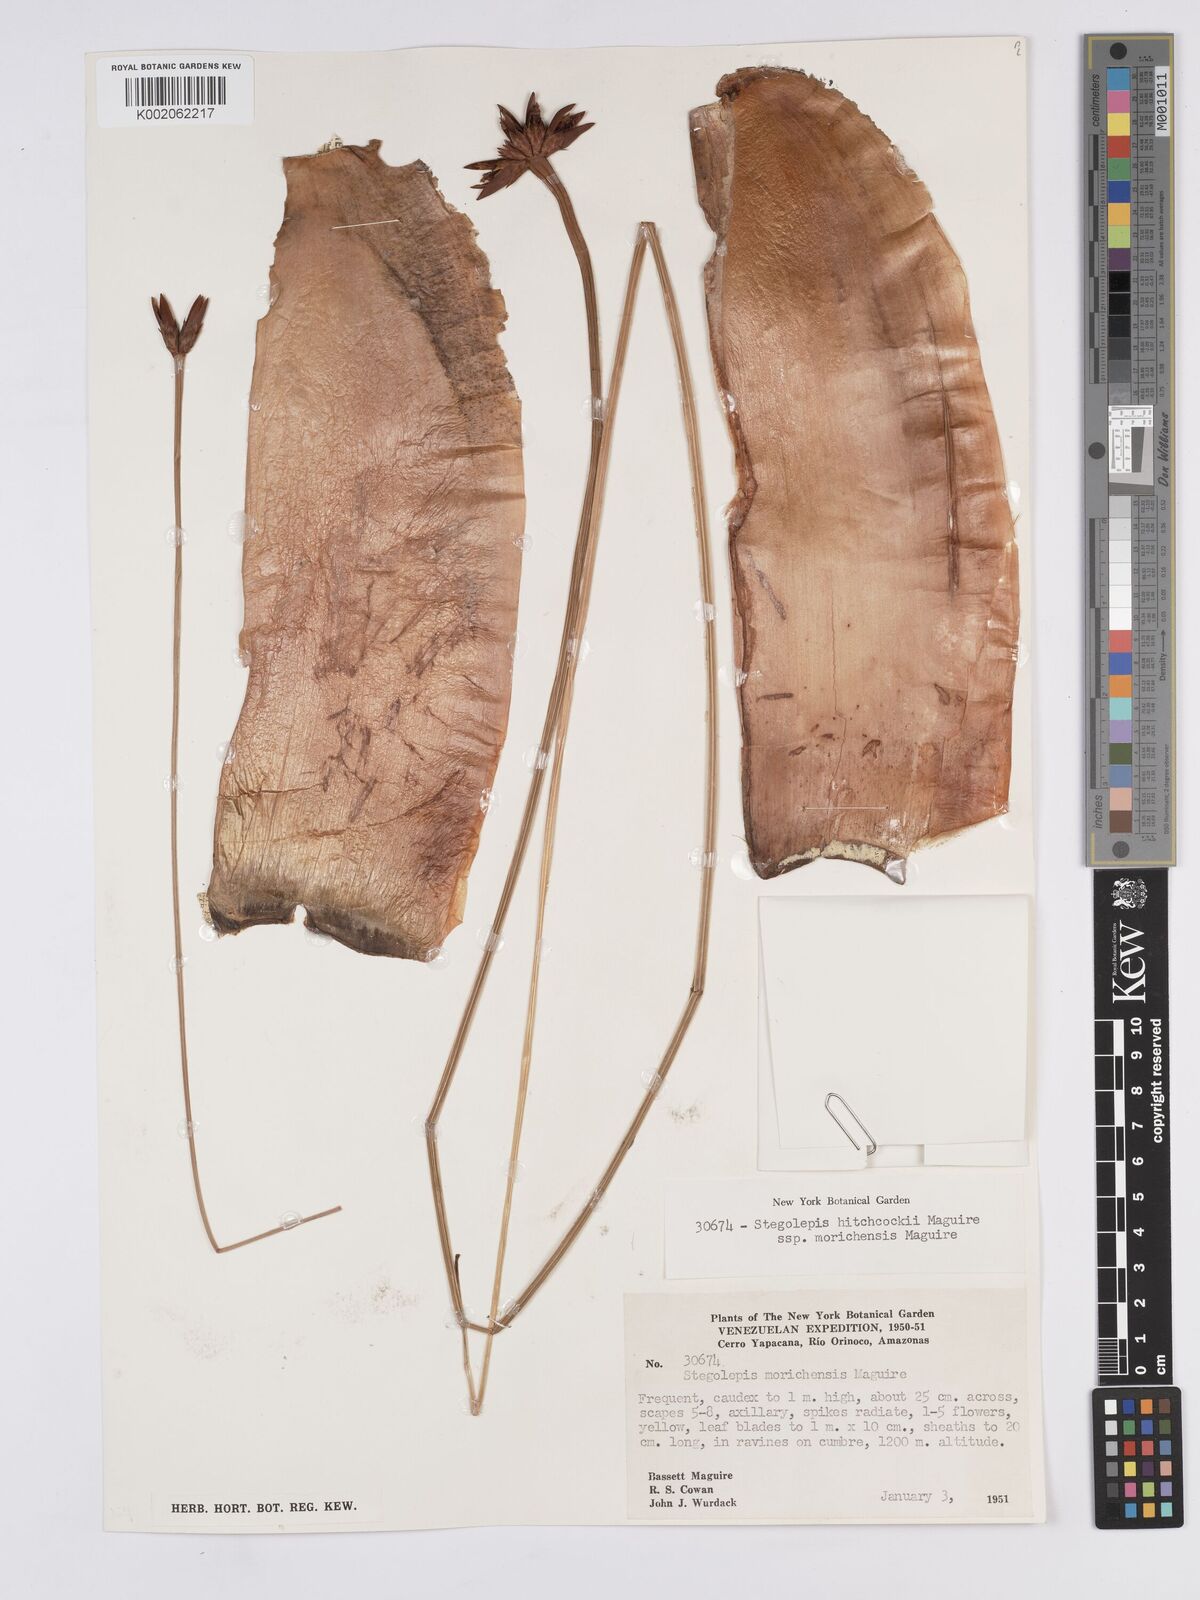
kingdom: Plantae
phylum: Tracheophyta
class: Liliopsida
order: Poales
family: Rapateaceae
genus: Stegolepis
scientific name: Stegolepis hitchcockii
